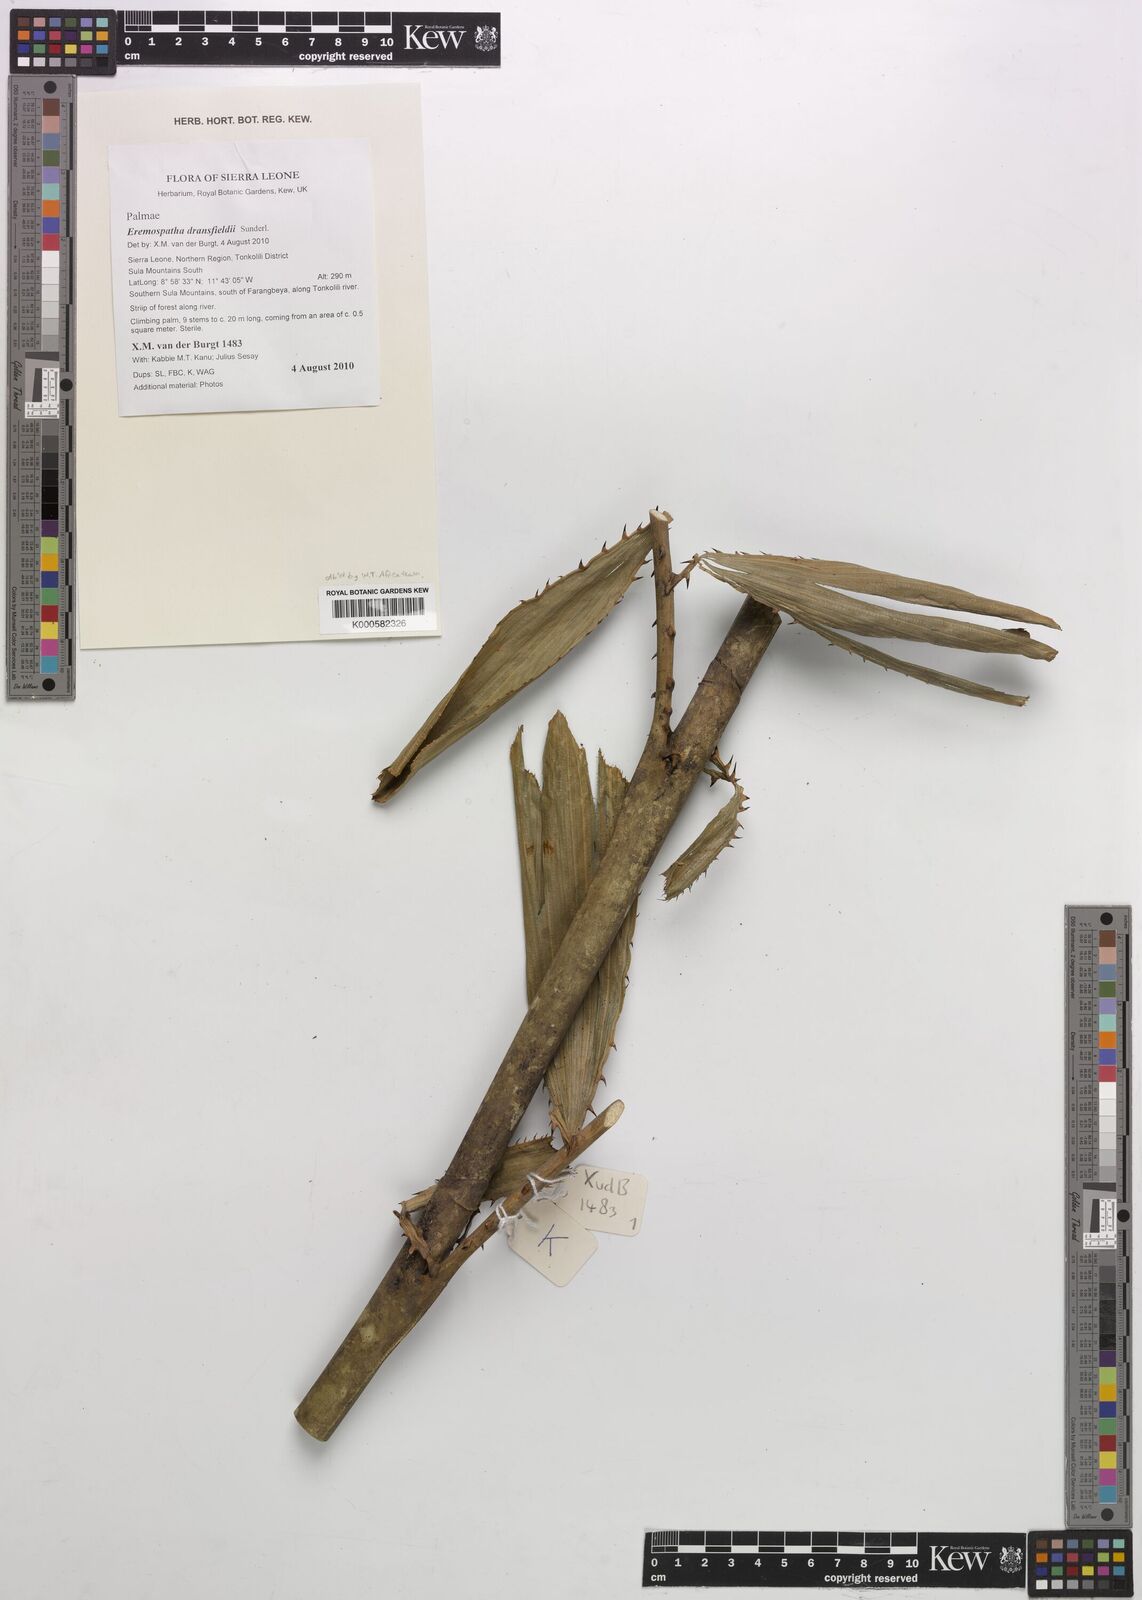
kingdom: Plantae
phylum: Tracheophyta
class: Liliopsida
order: Arecales
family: Arecaceae
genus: Eremospatha
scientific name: Eremospatha dransfieldii
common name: Rattan
